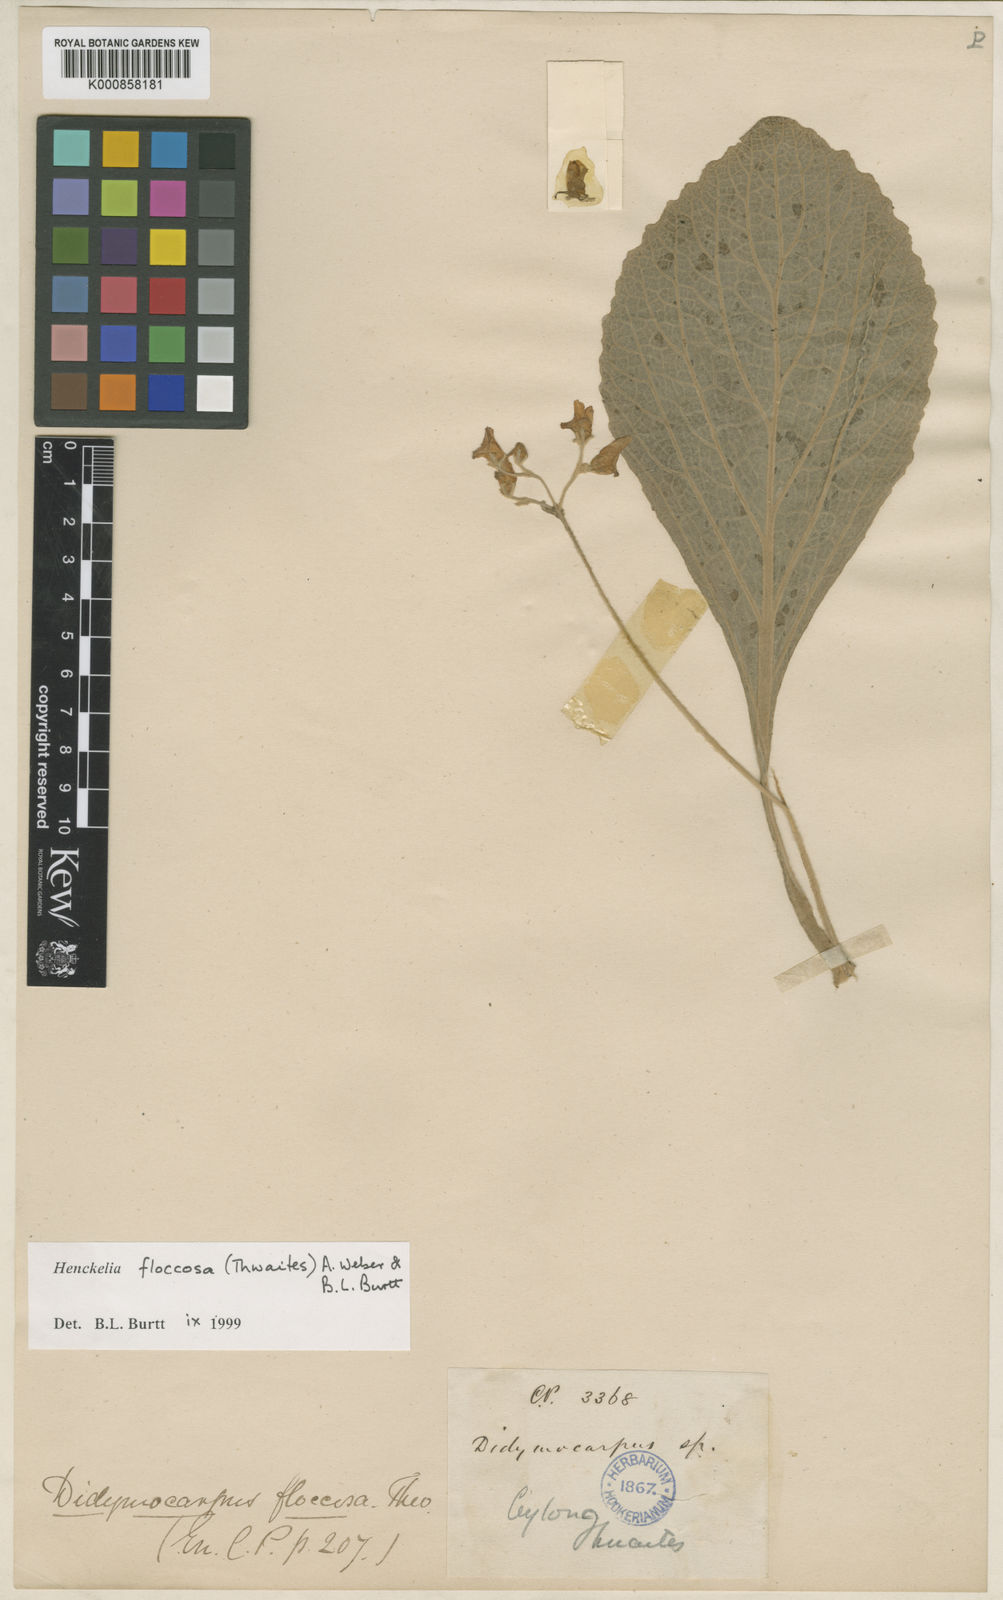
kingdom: Plantae
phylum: Tracheophyta
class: Magnoliopsida
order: Lamiales
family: Gesneriaceae
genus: Henckelia
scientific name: Henckelia floccosa
